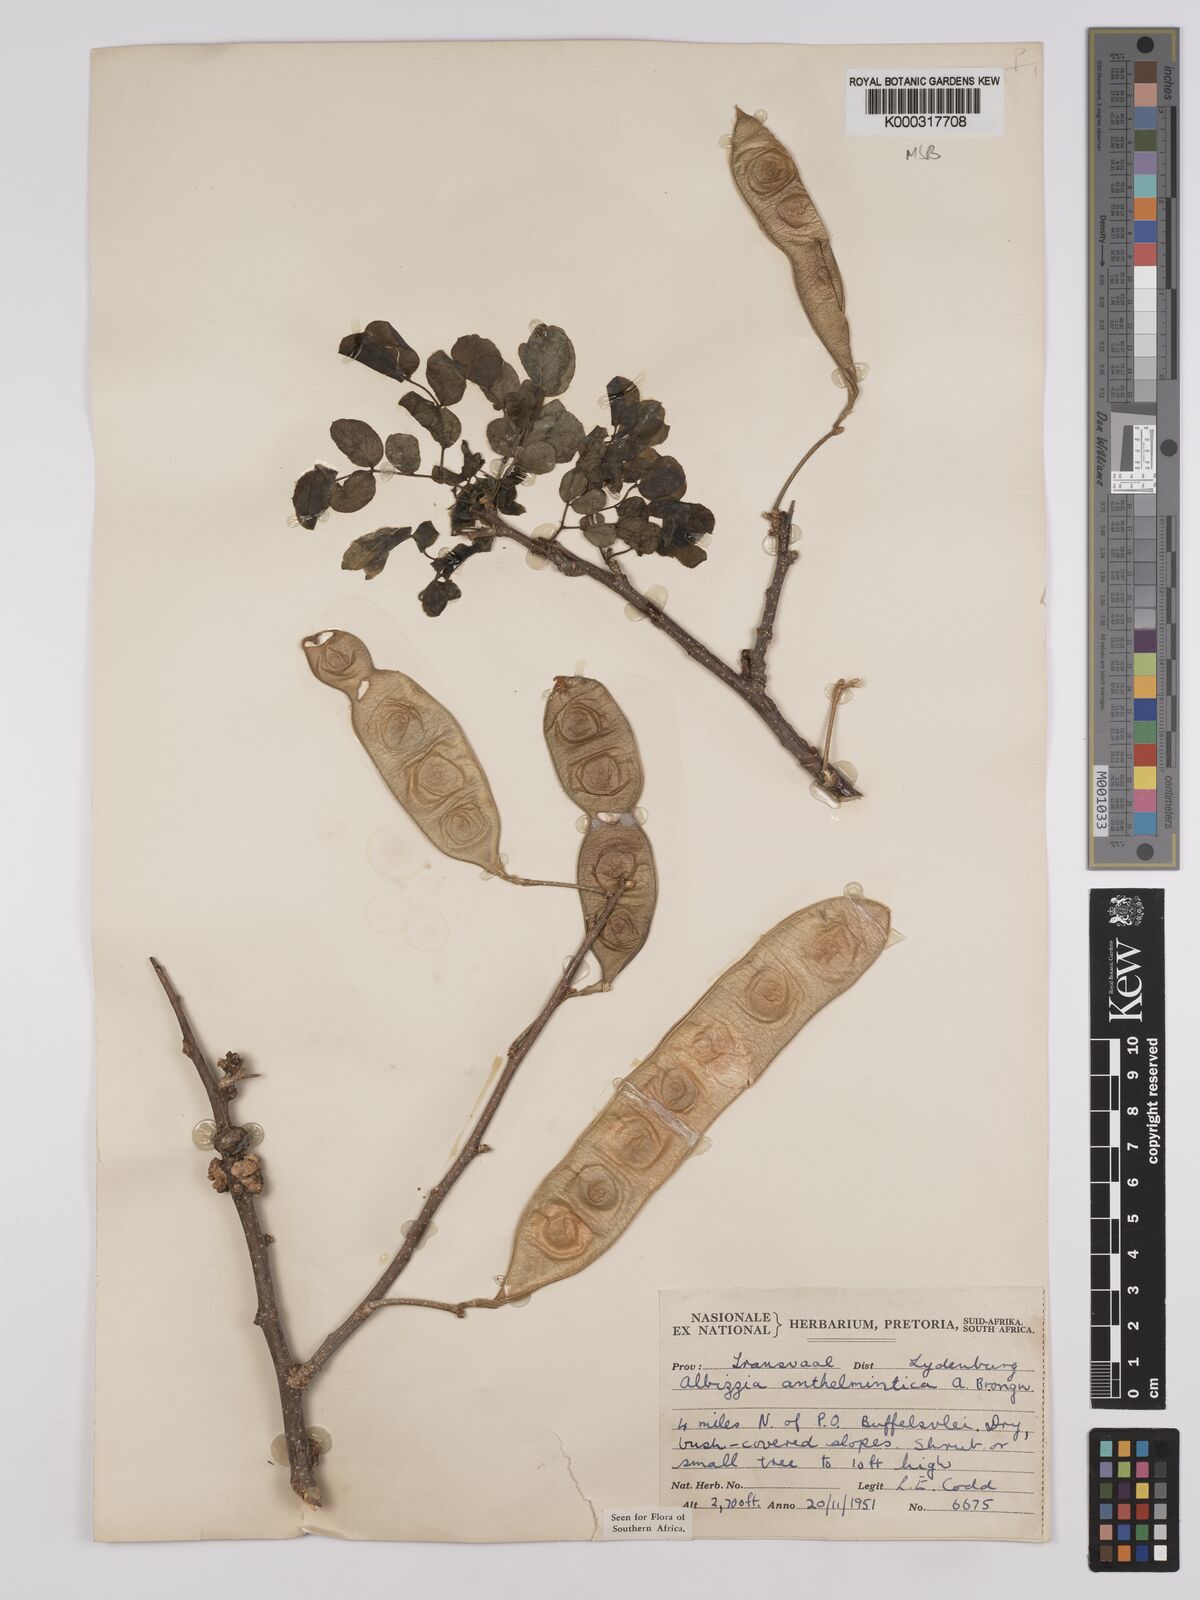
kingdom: Plantae
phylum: Tracheophyta
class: Magnoliopsida
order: Fabales
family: Fabaceae
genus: Albizia
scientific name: Albizia anthelmintica
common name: Worm-bark false-thorn
